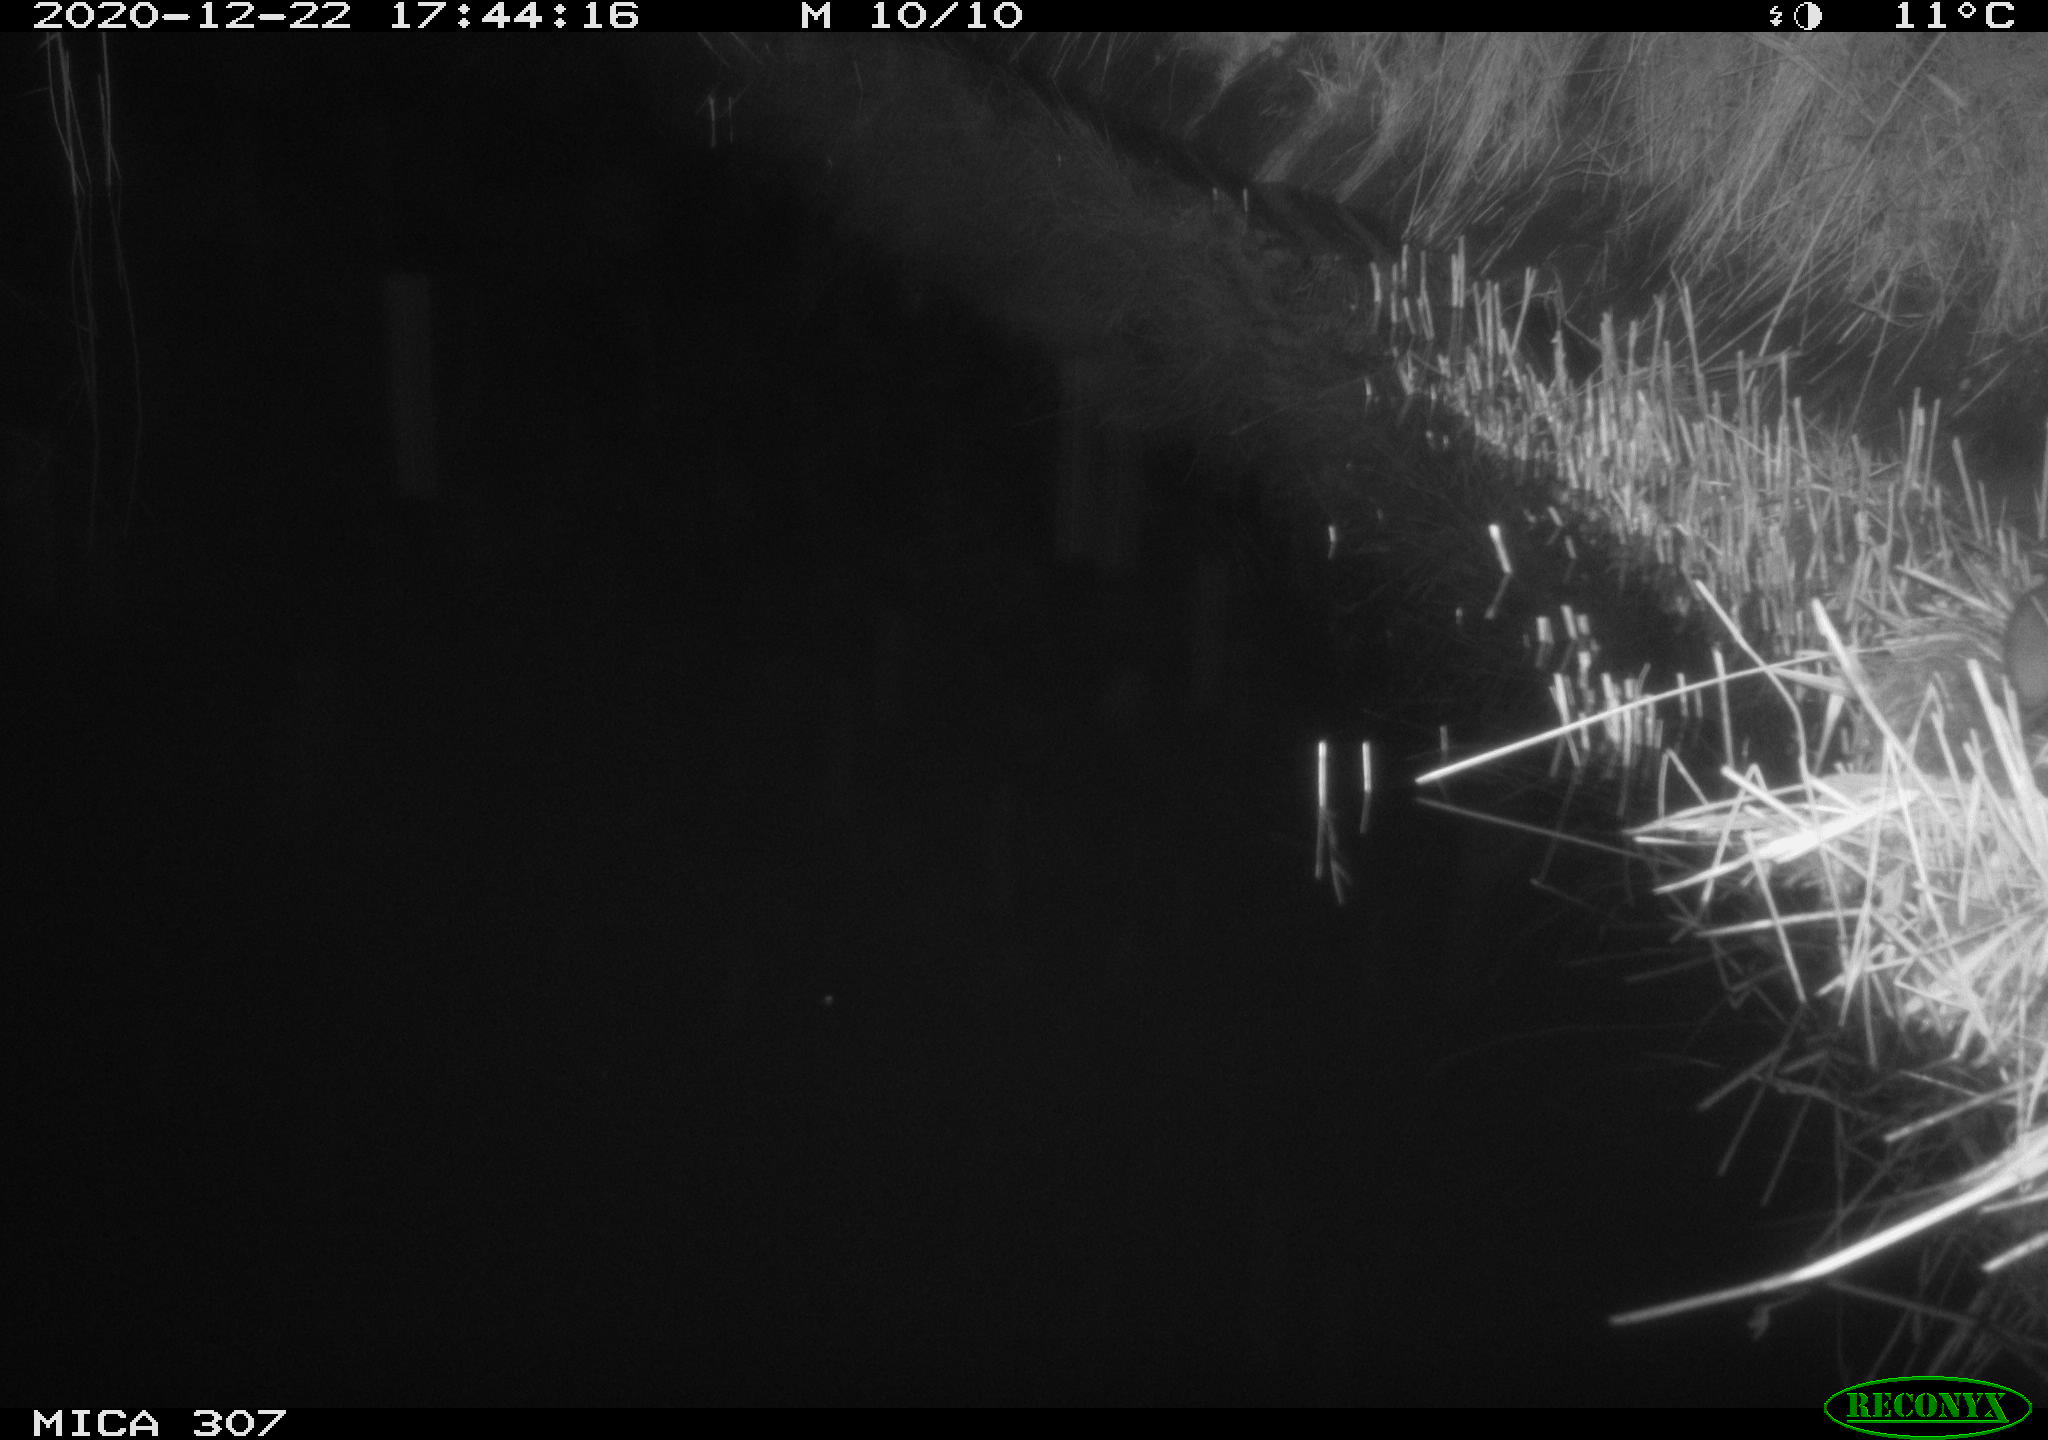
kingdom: Animalia
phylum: Chordata
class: Mammalia
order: Rodentia
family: Muridae
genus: Rattus
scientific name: Rattus norvegicus
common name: Brown rat
